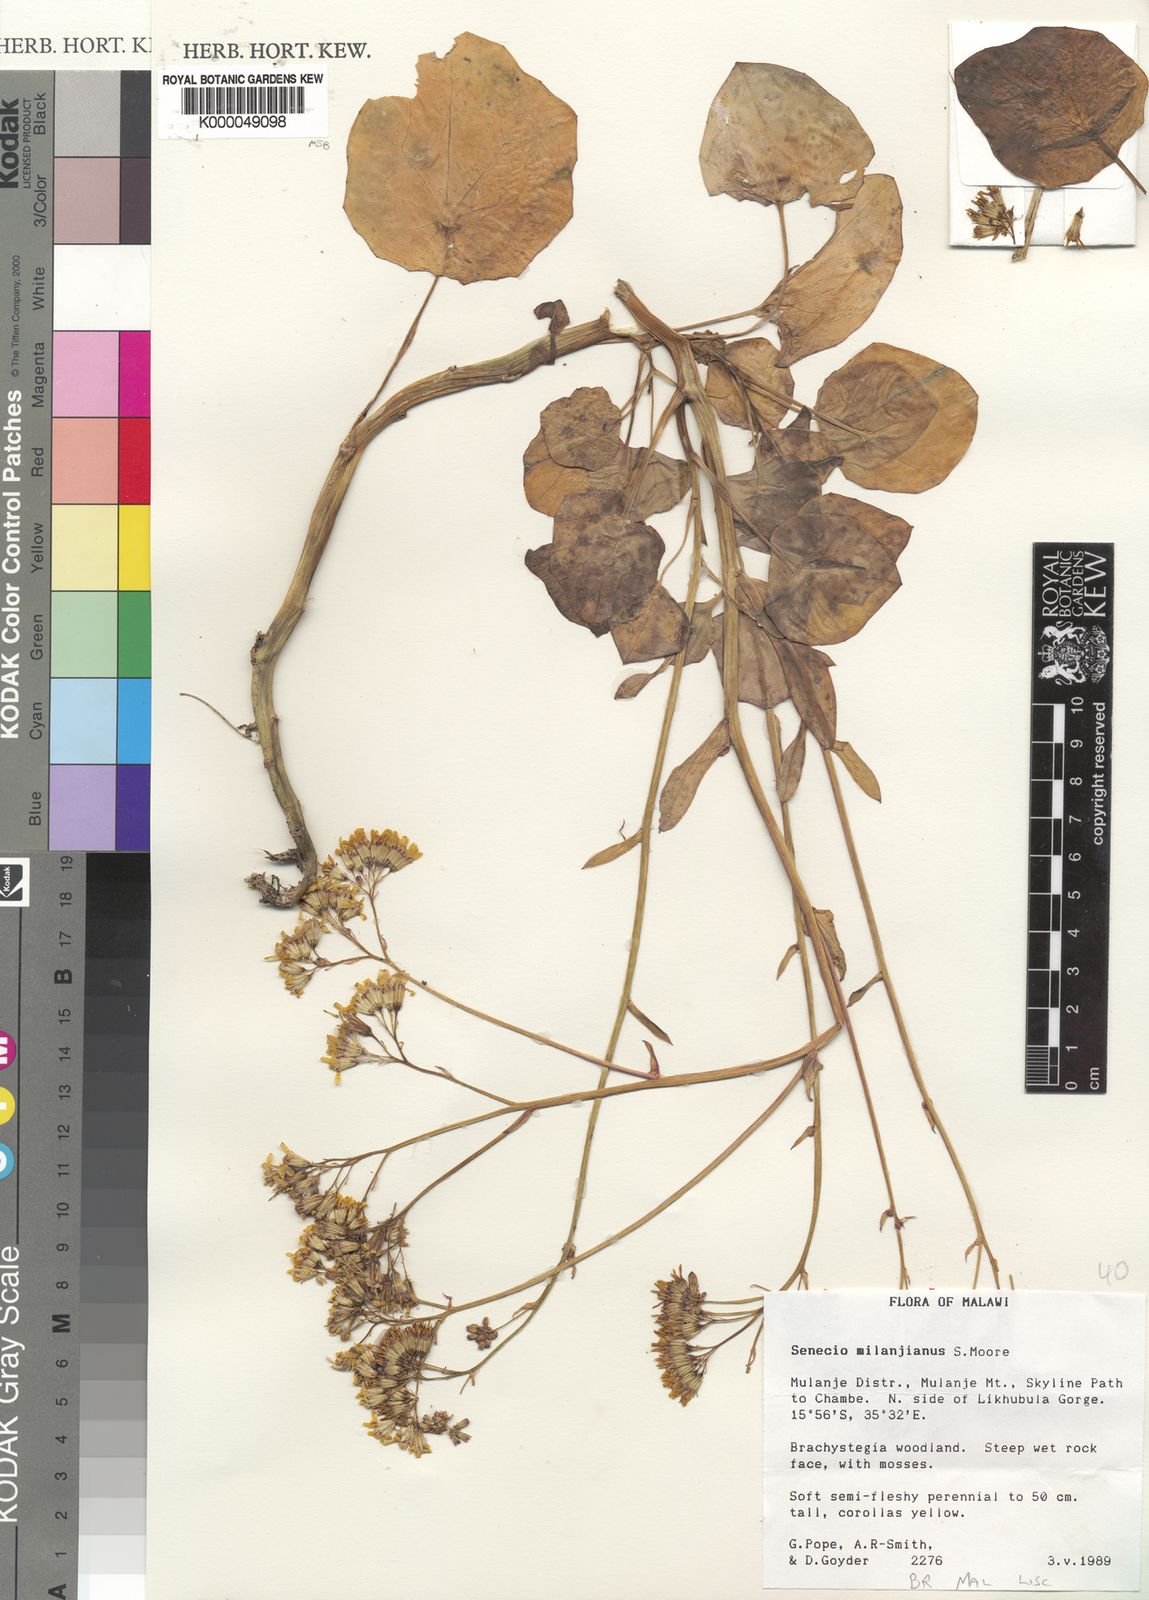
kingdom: Plantae
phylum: Tracheophyta
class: Magnoliopsida
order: Asterales
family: Asteraceae
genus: Senecio
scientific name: Senecio
